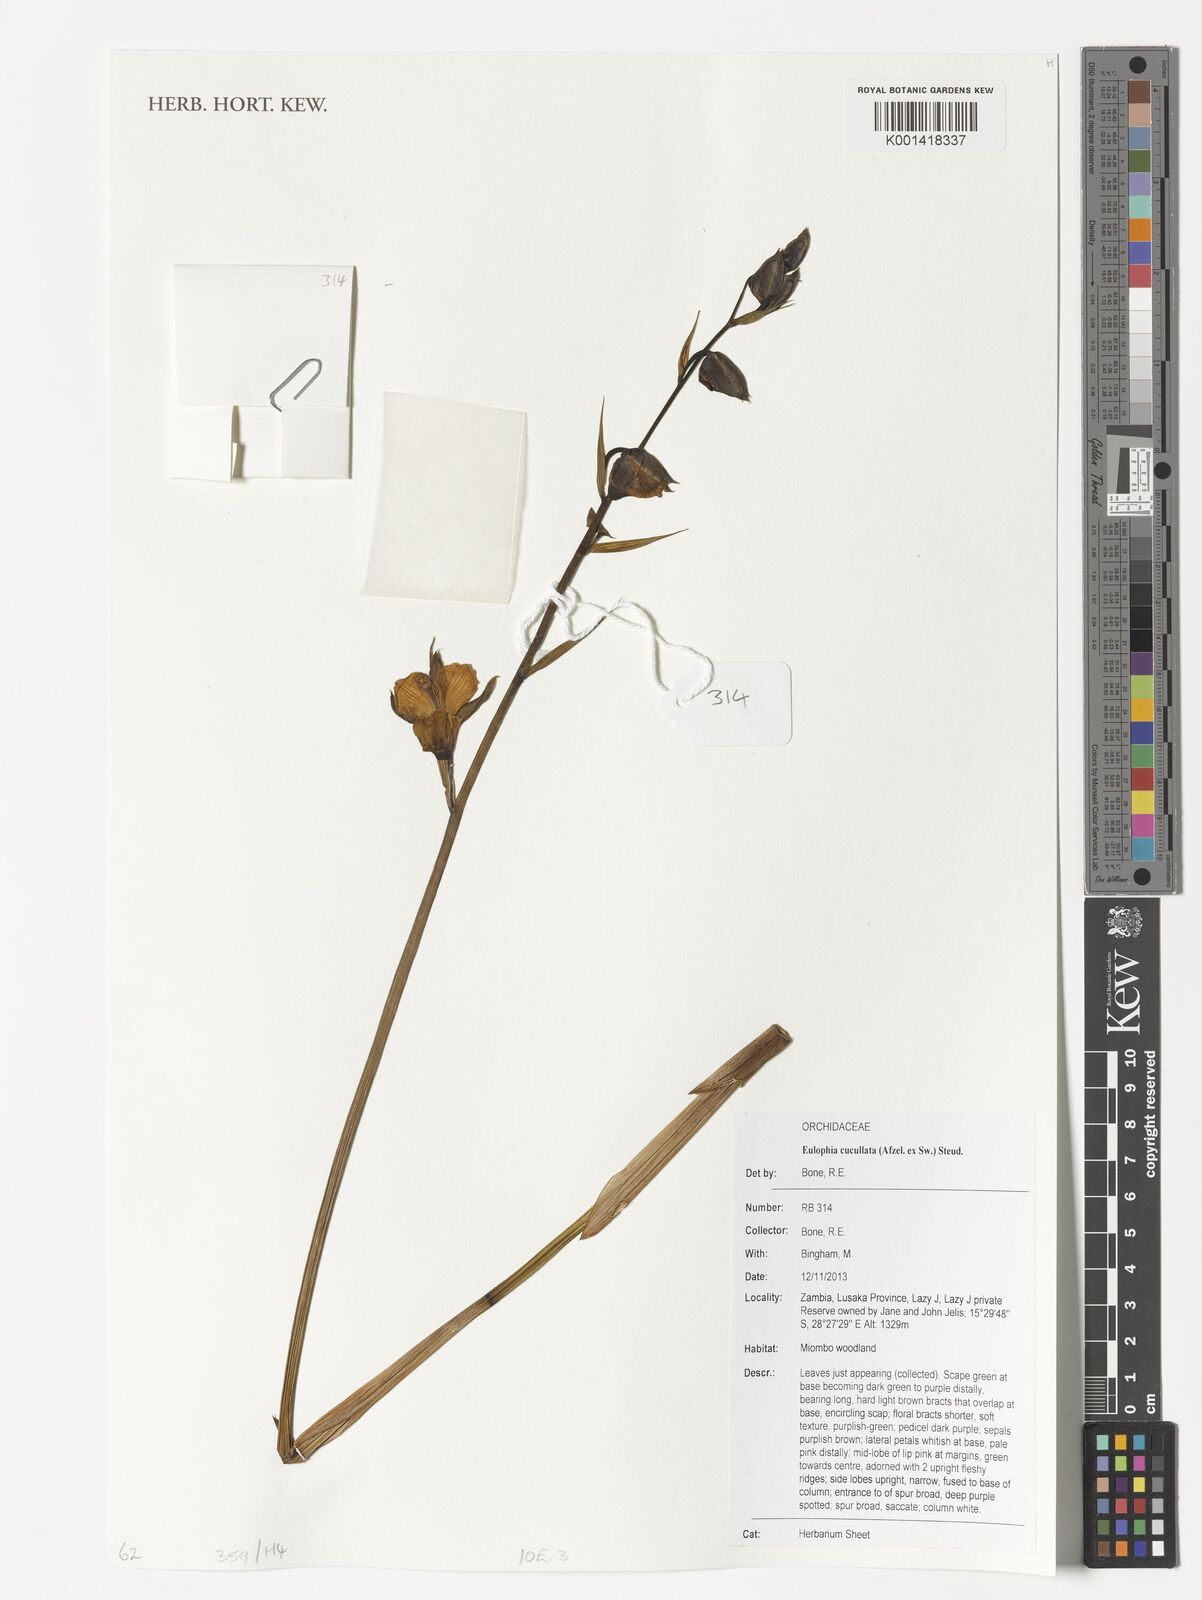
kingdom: Plantae
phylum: Tracheophyta
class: Liliopsida
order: Asparagales
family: Orchidaceae
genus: Eulophia
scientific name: Eulophia cucullata
